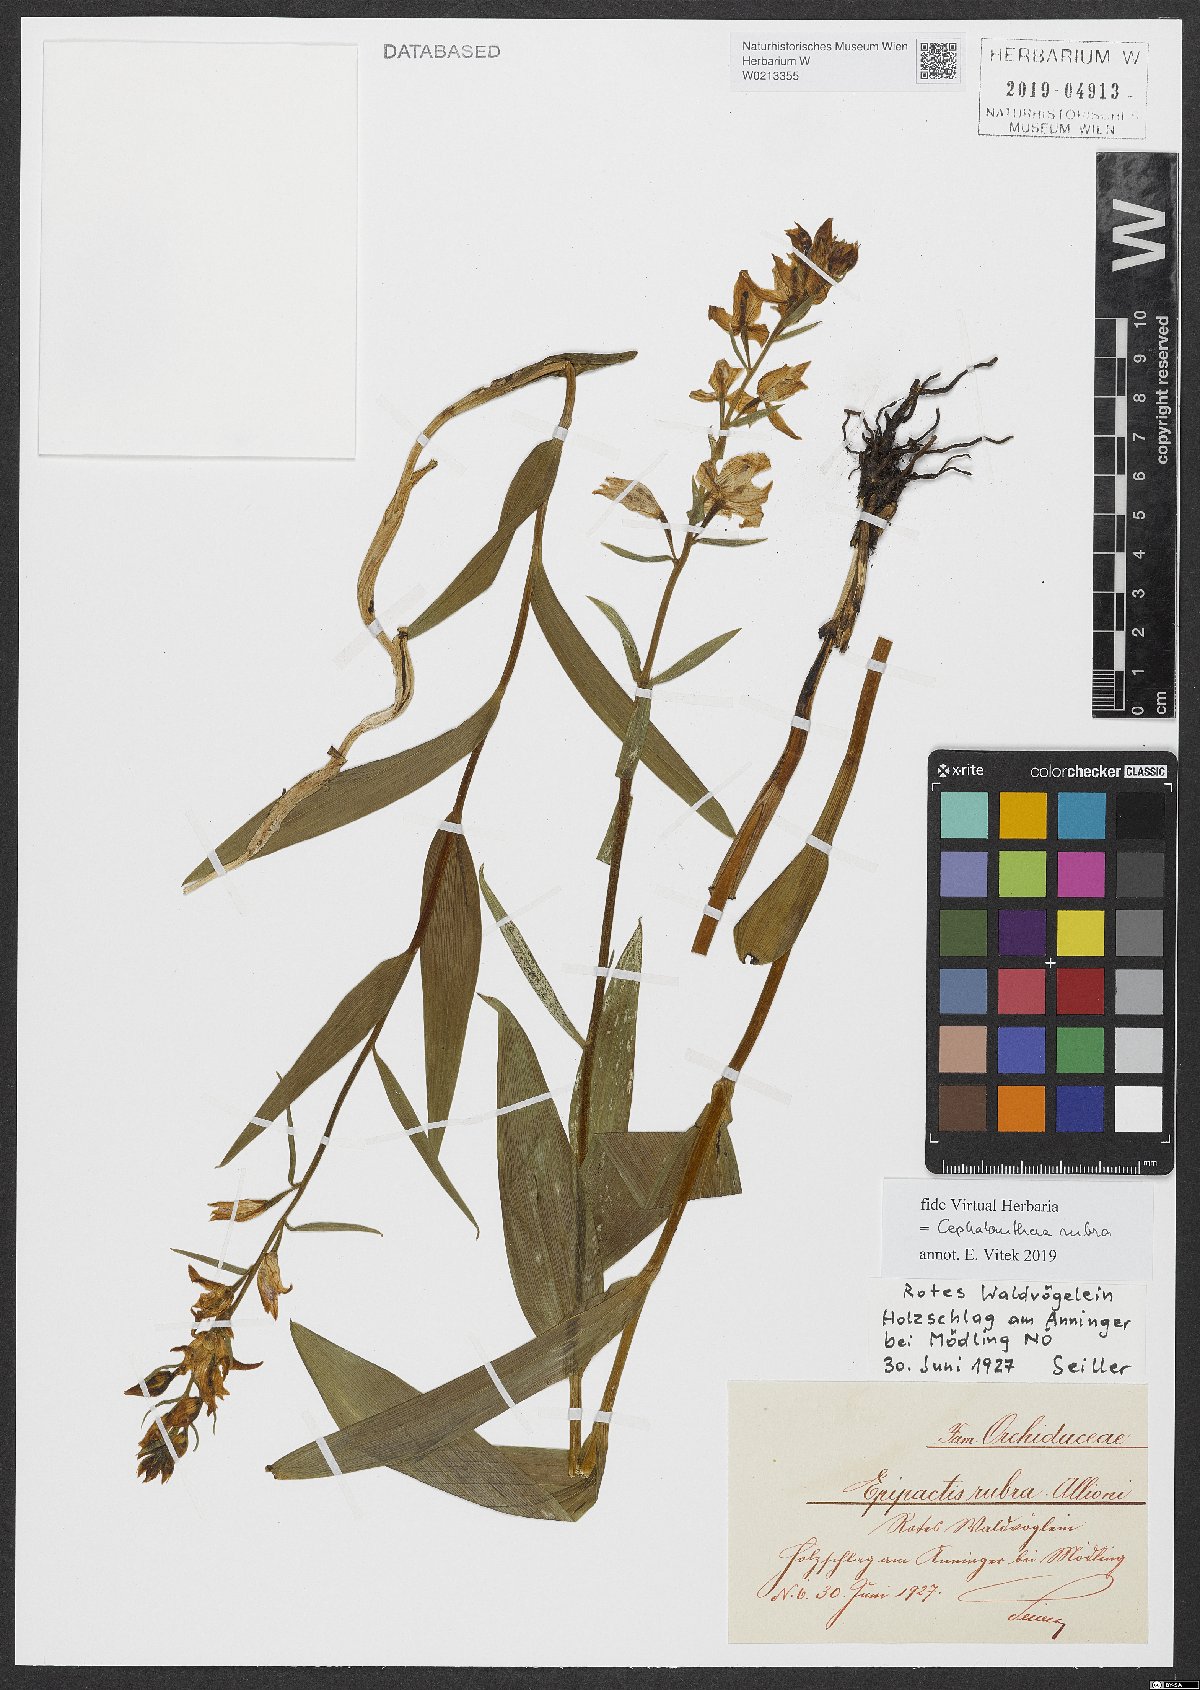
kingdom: Plantae
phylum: Tracheophyta
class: Liliopsida
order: Asparagales
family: Orchidaceae
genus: Cephalanthera
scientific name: Cephalanthera rubra
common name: Red helleborine
